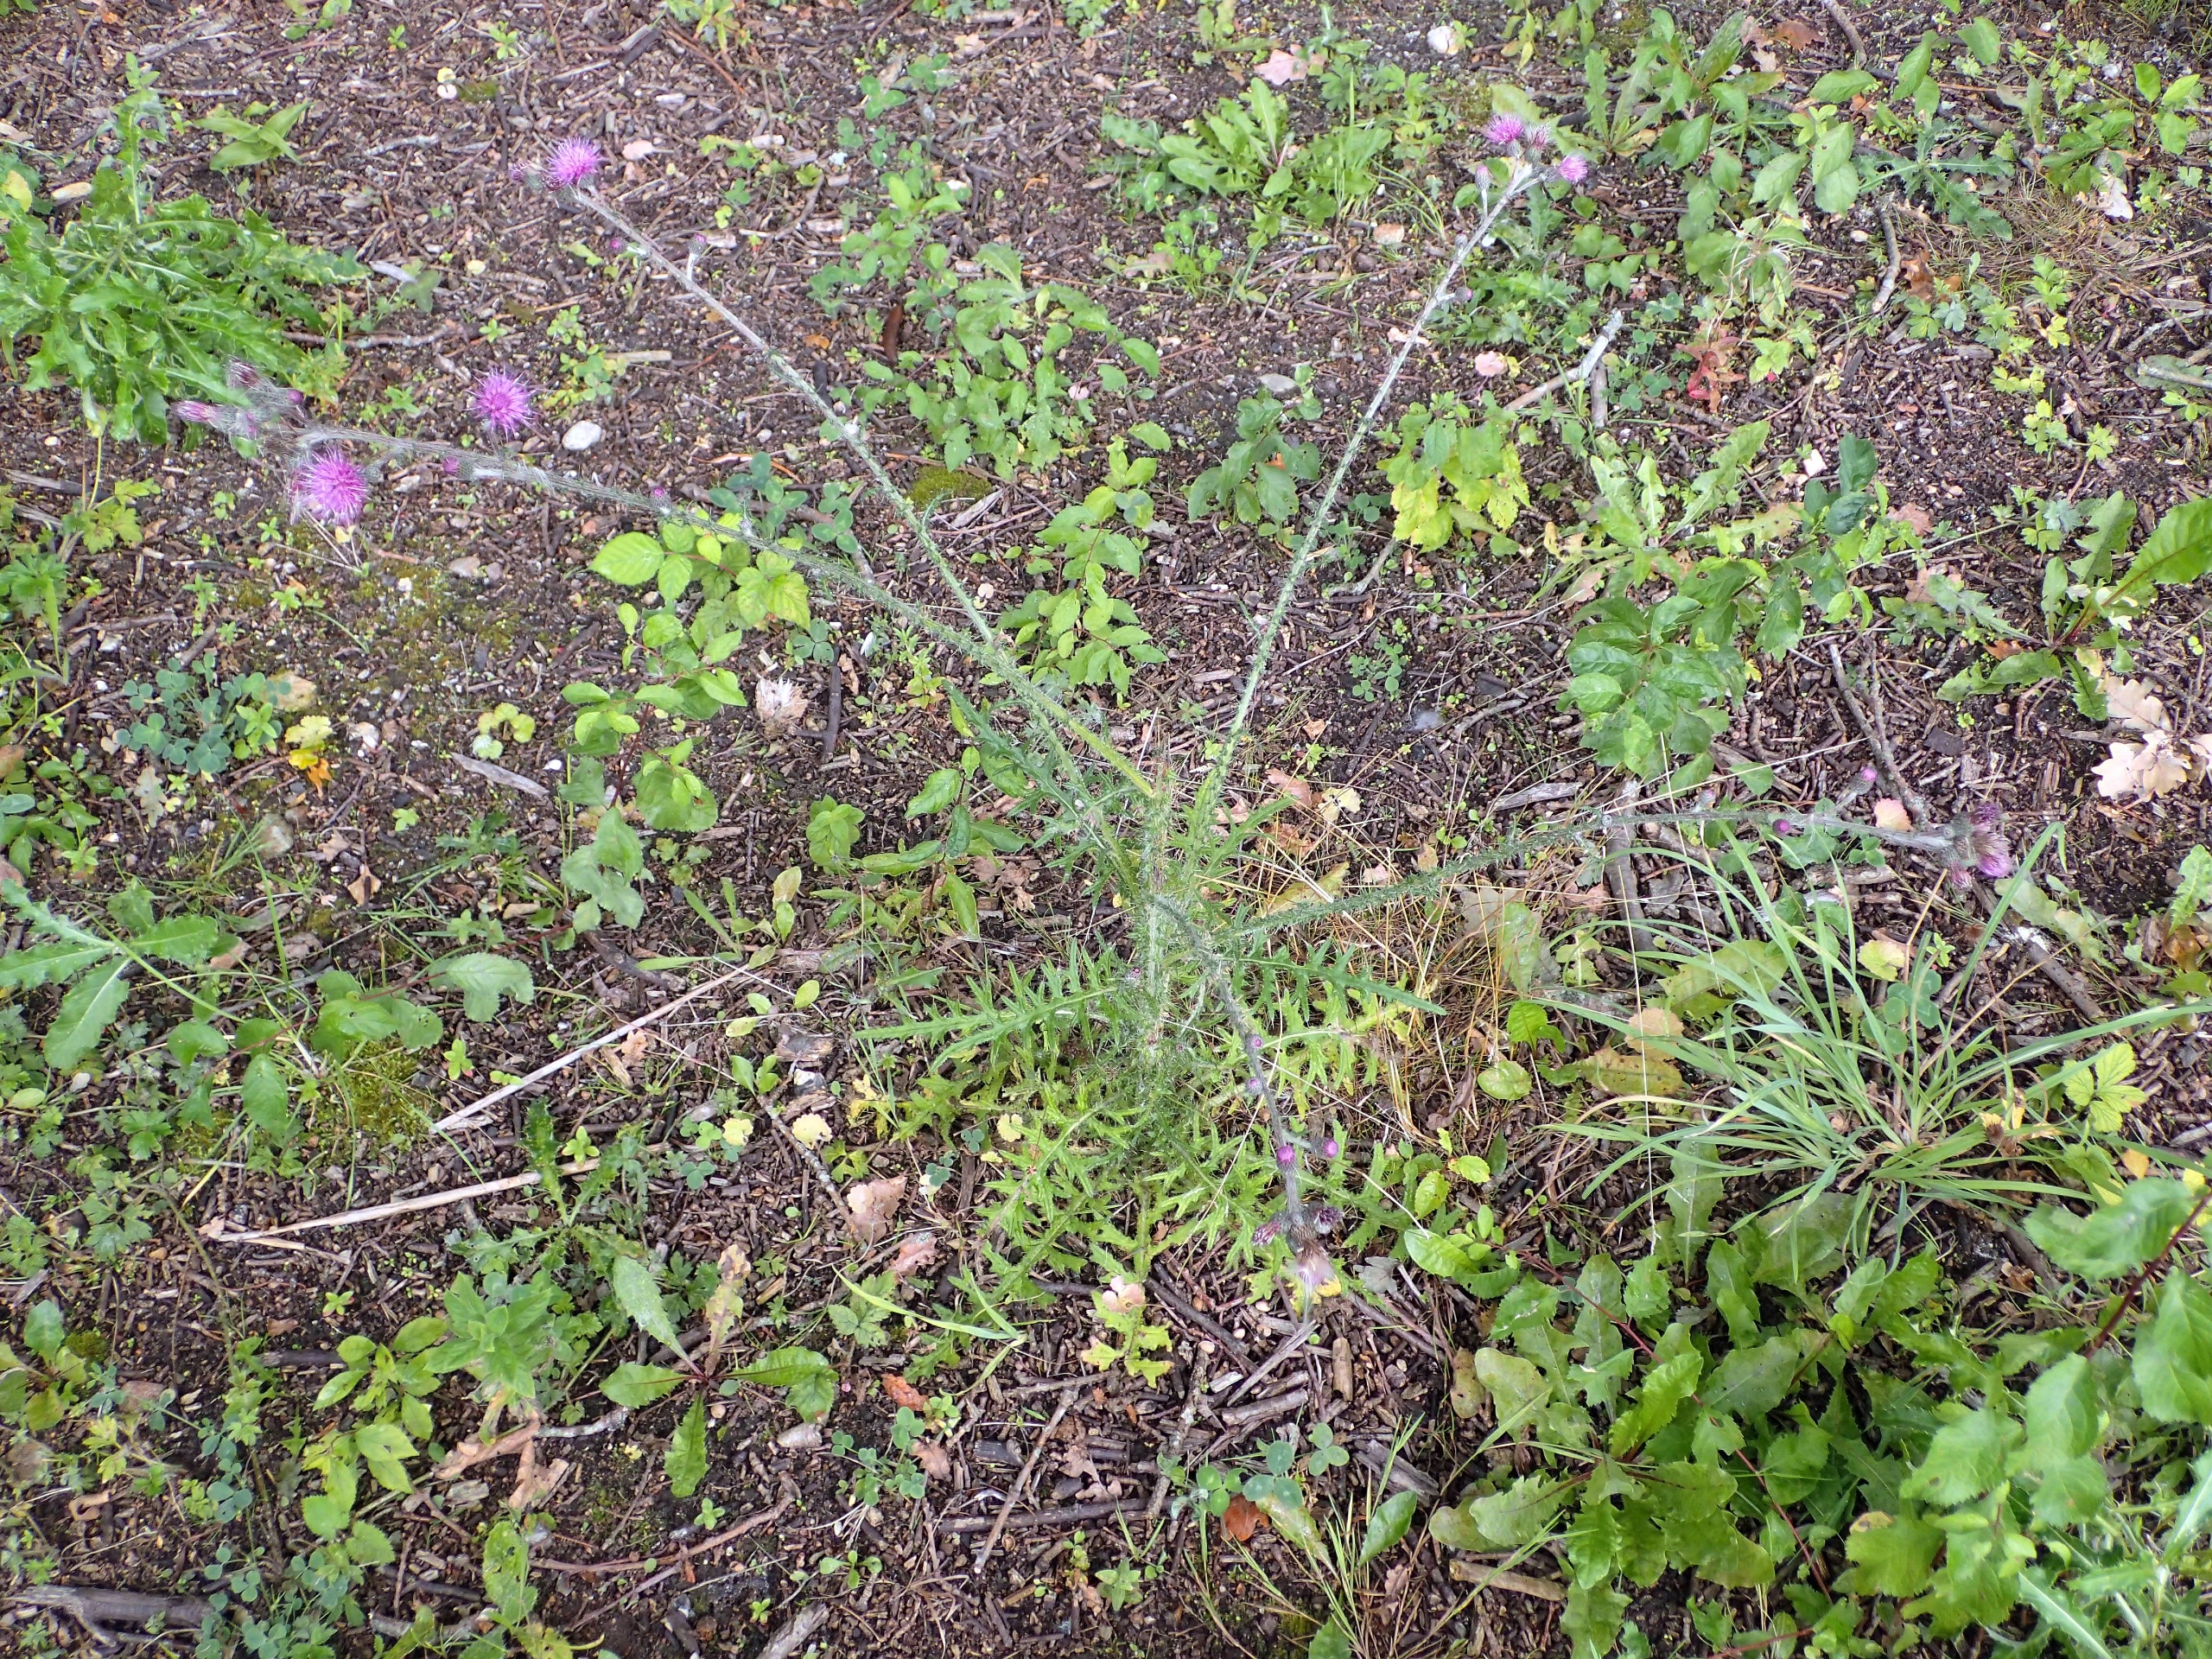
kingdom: Plantae
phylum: Tracheophyta
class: Magnoliopsida
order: Asterales
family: Asteraceae
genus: Cirsium
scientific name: Cirsium palustre
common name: Kær-tidsel
